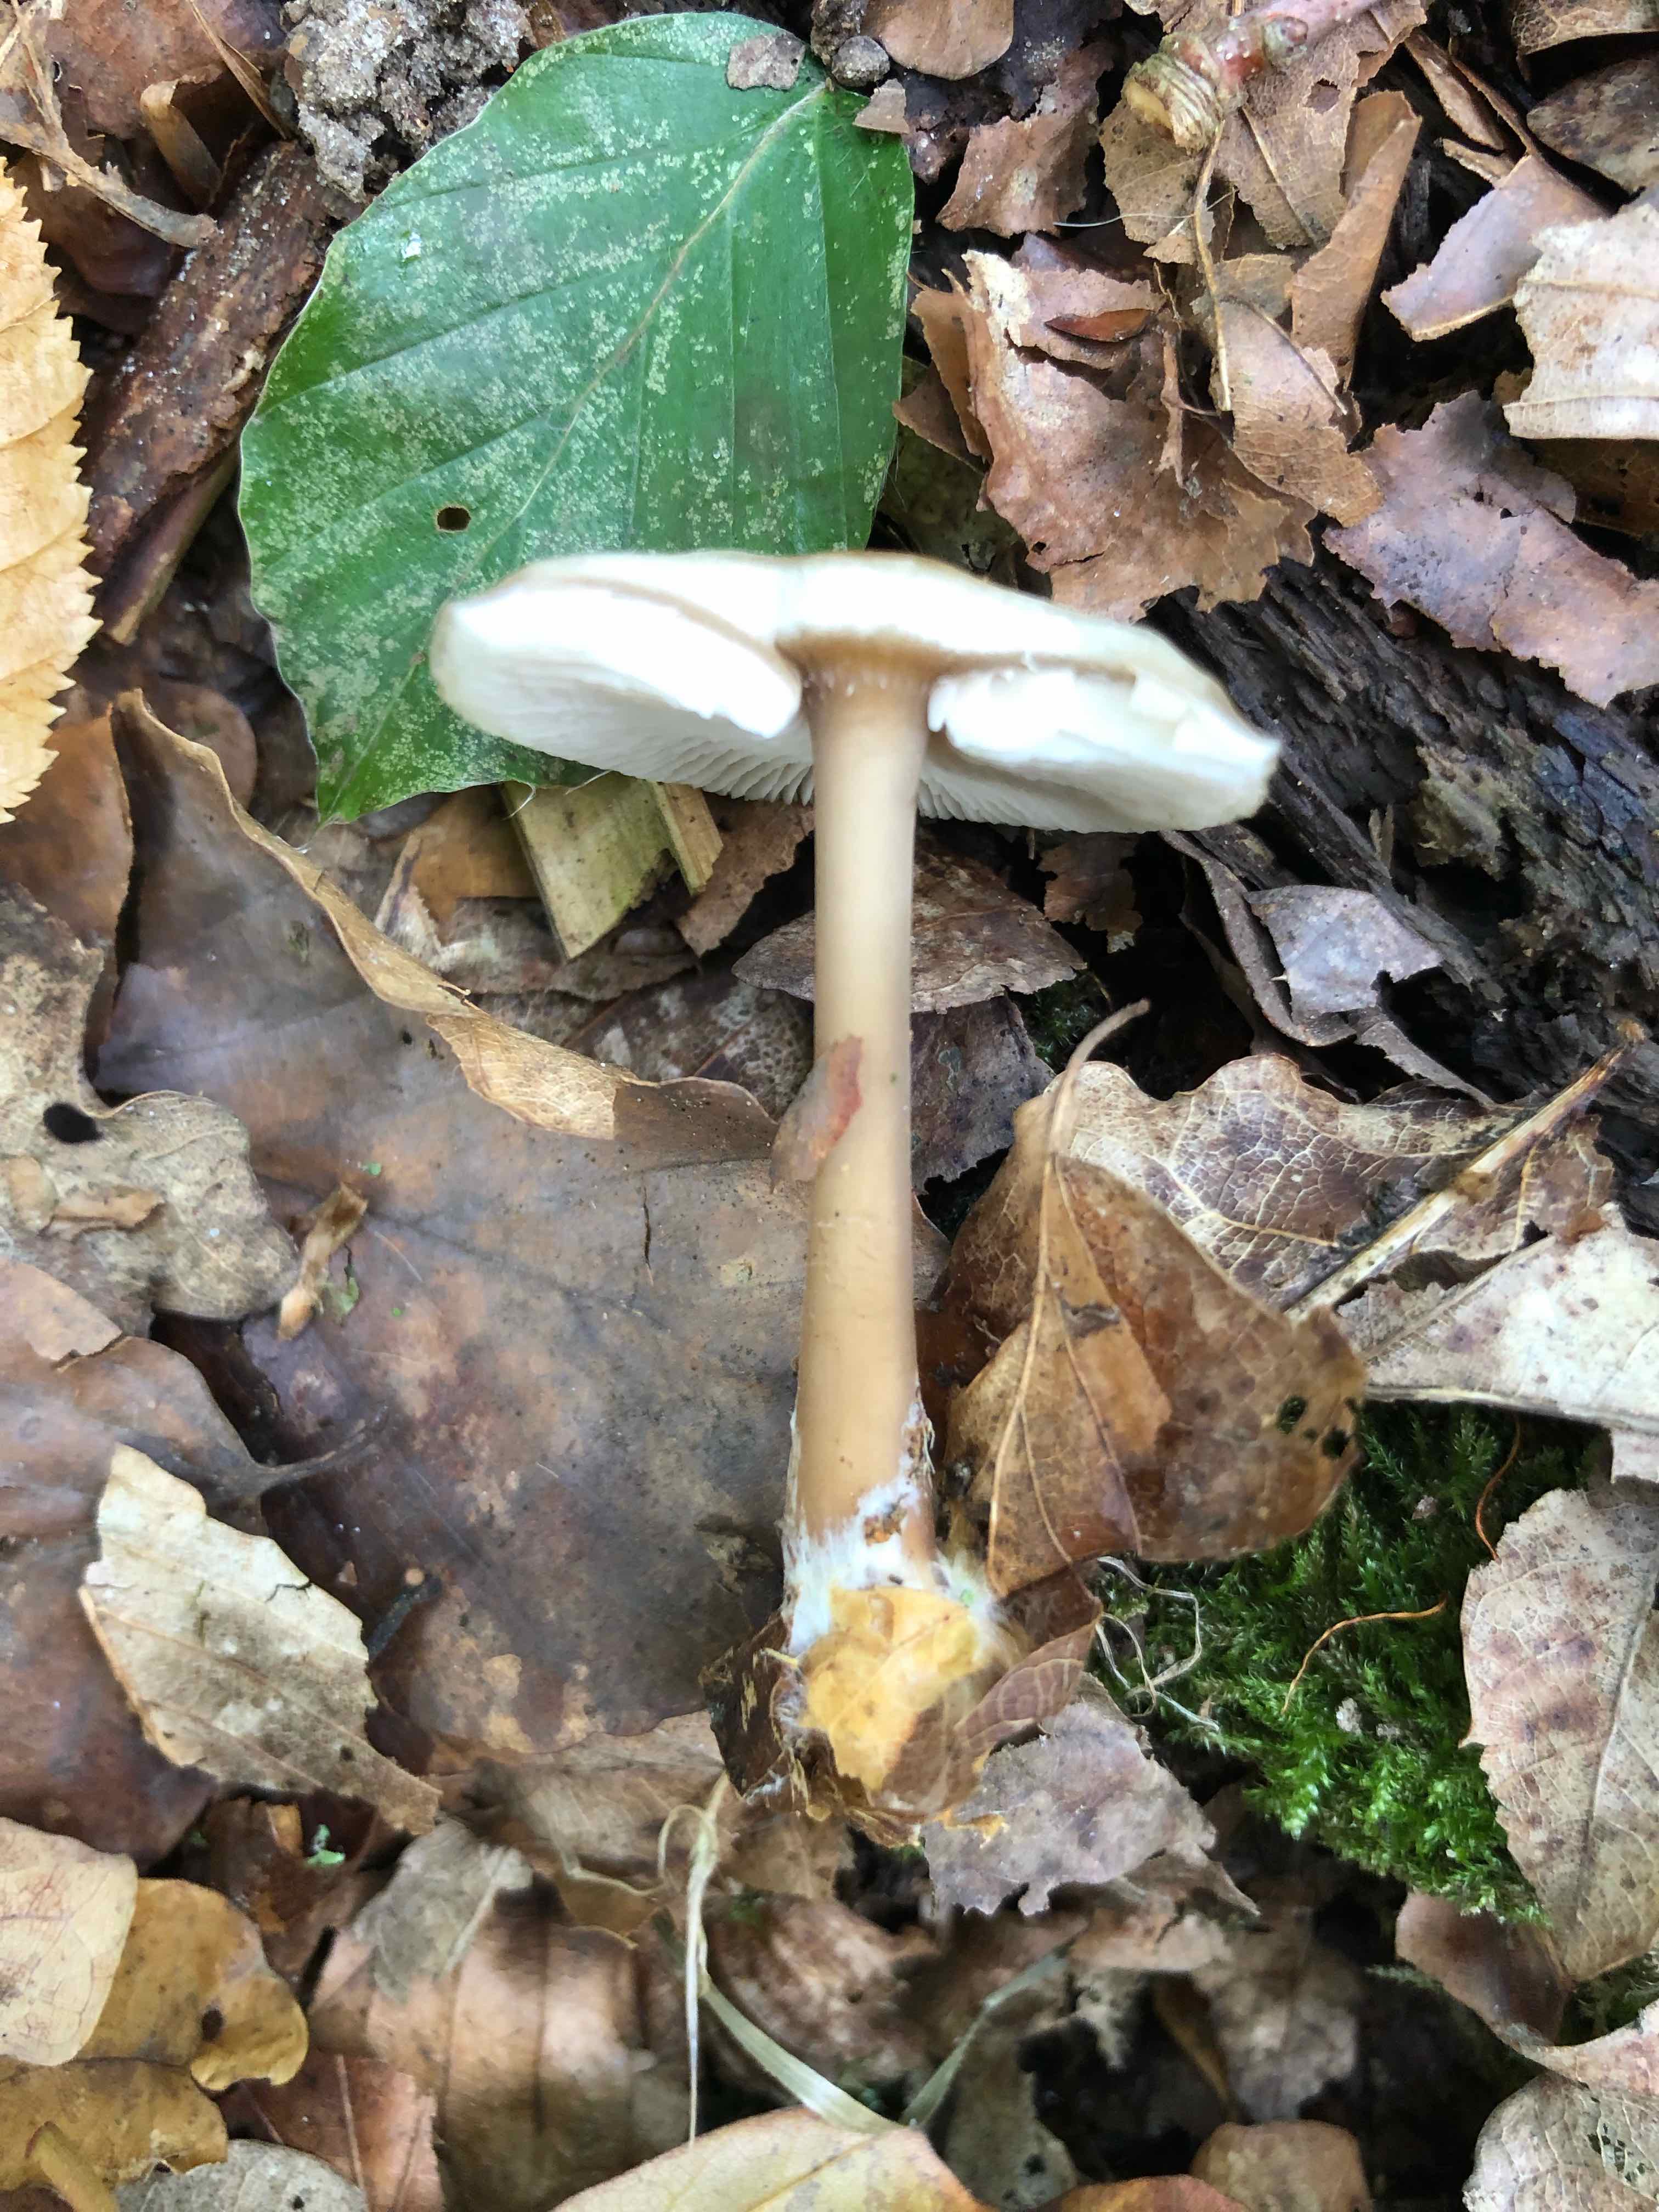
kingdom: Fungi
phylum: Basidiomycota
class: Agaricomycetes
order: Agaricales
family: Omphalotaceae
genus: Rhodocollybia
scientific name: Rhodocollybia asema
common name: horngrå fladhat
